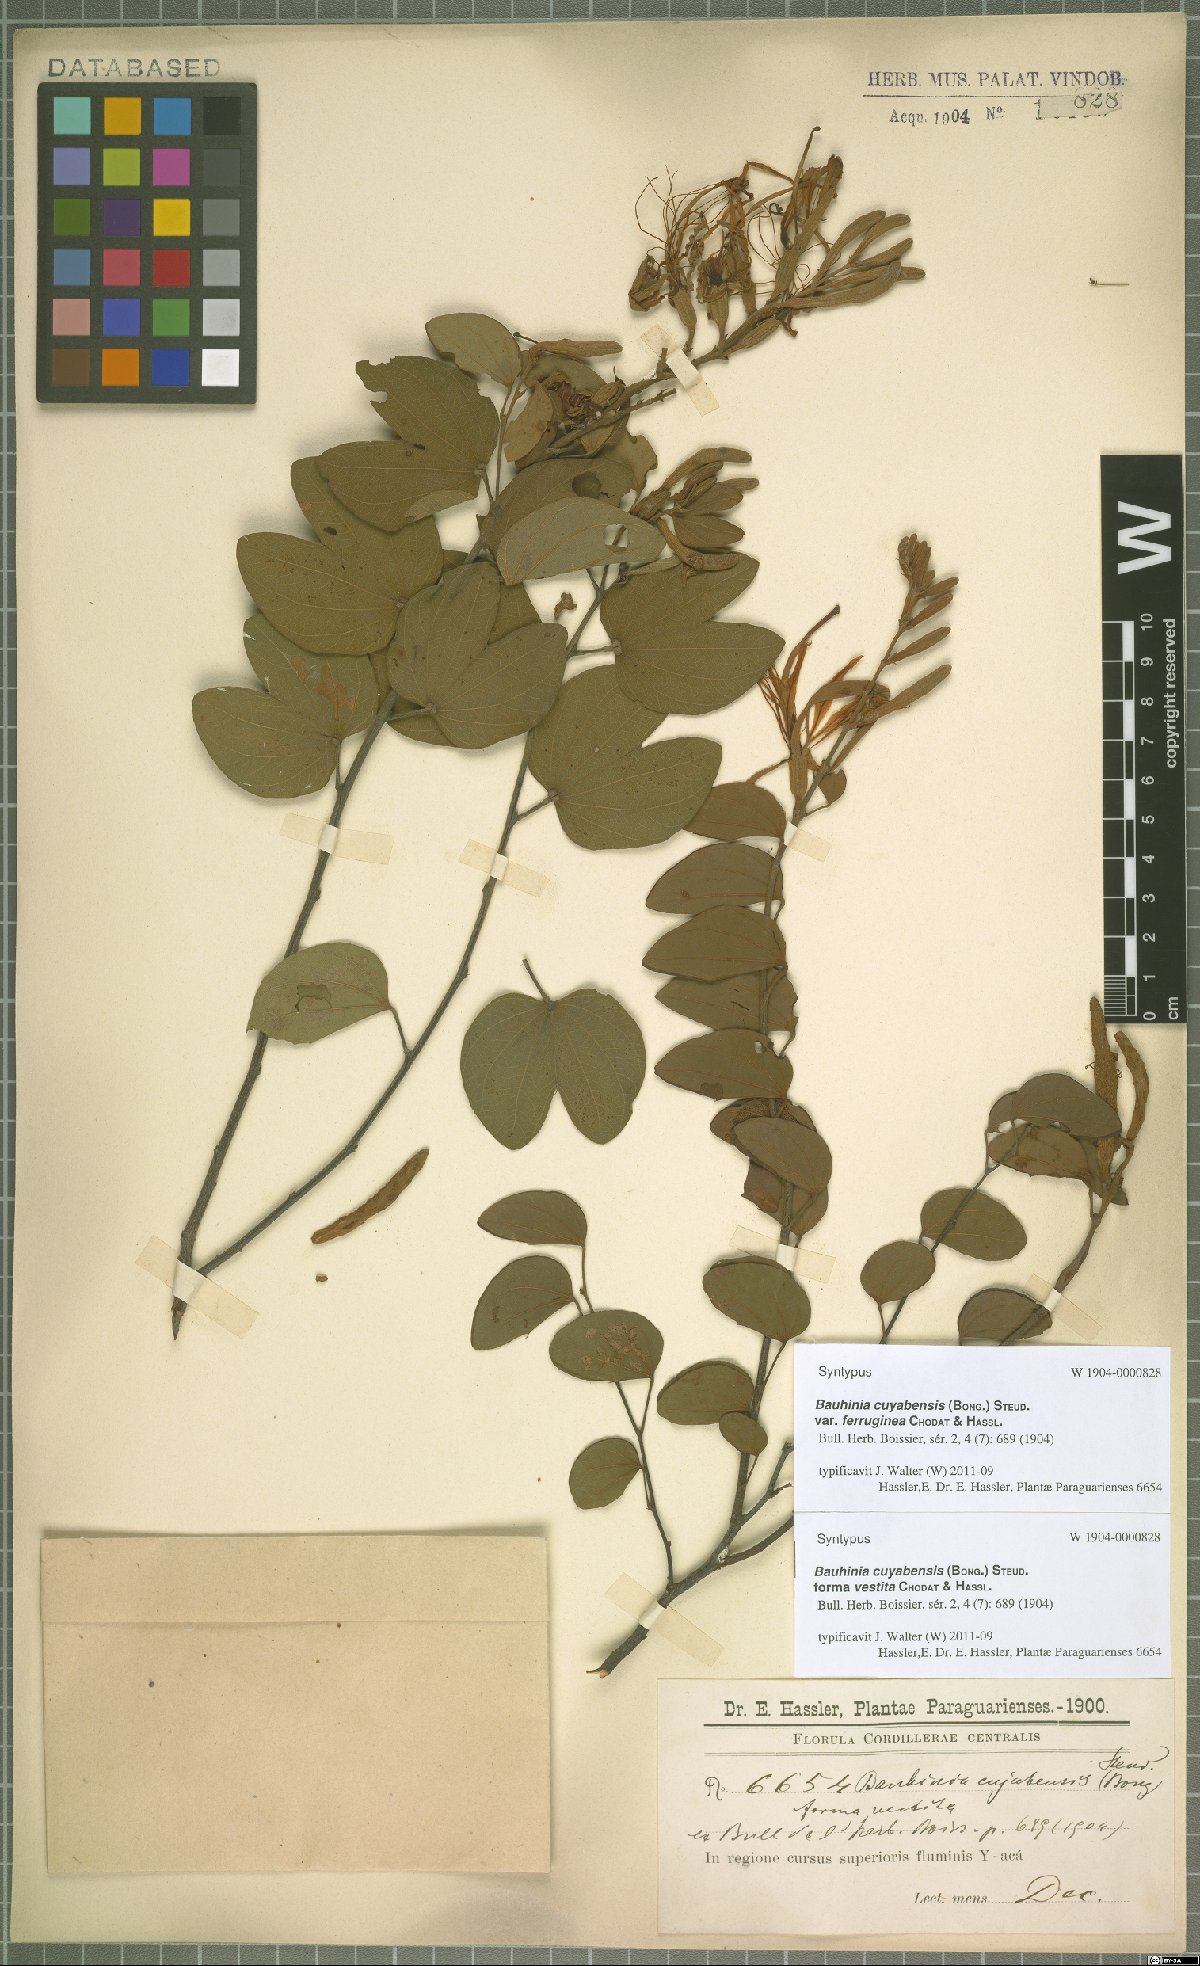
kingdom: Plantae
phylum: Tracheophyta
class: Magnoliopsida
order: Fabales
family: Fabaceae
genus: Bauhinia
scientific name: Bauhinia ungulata
